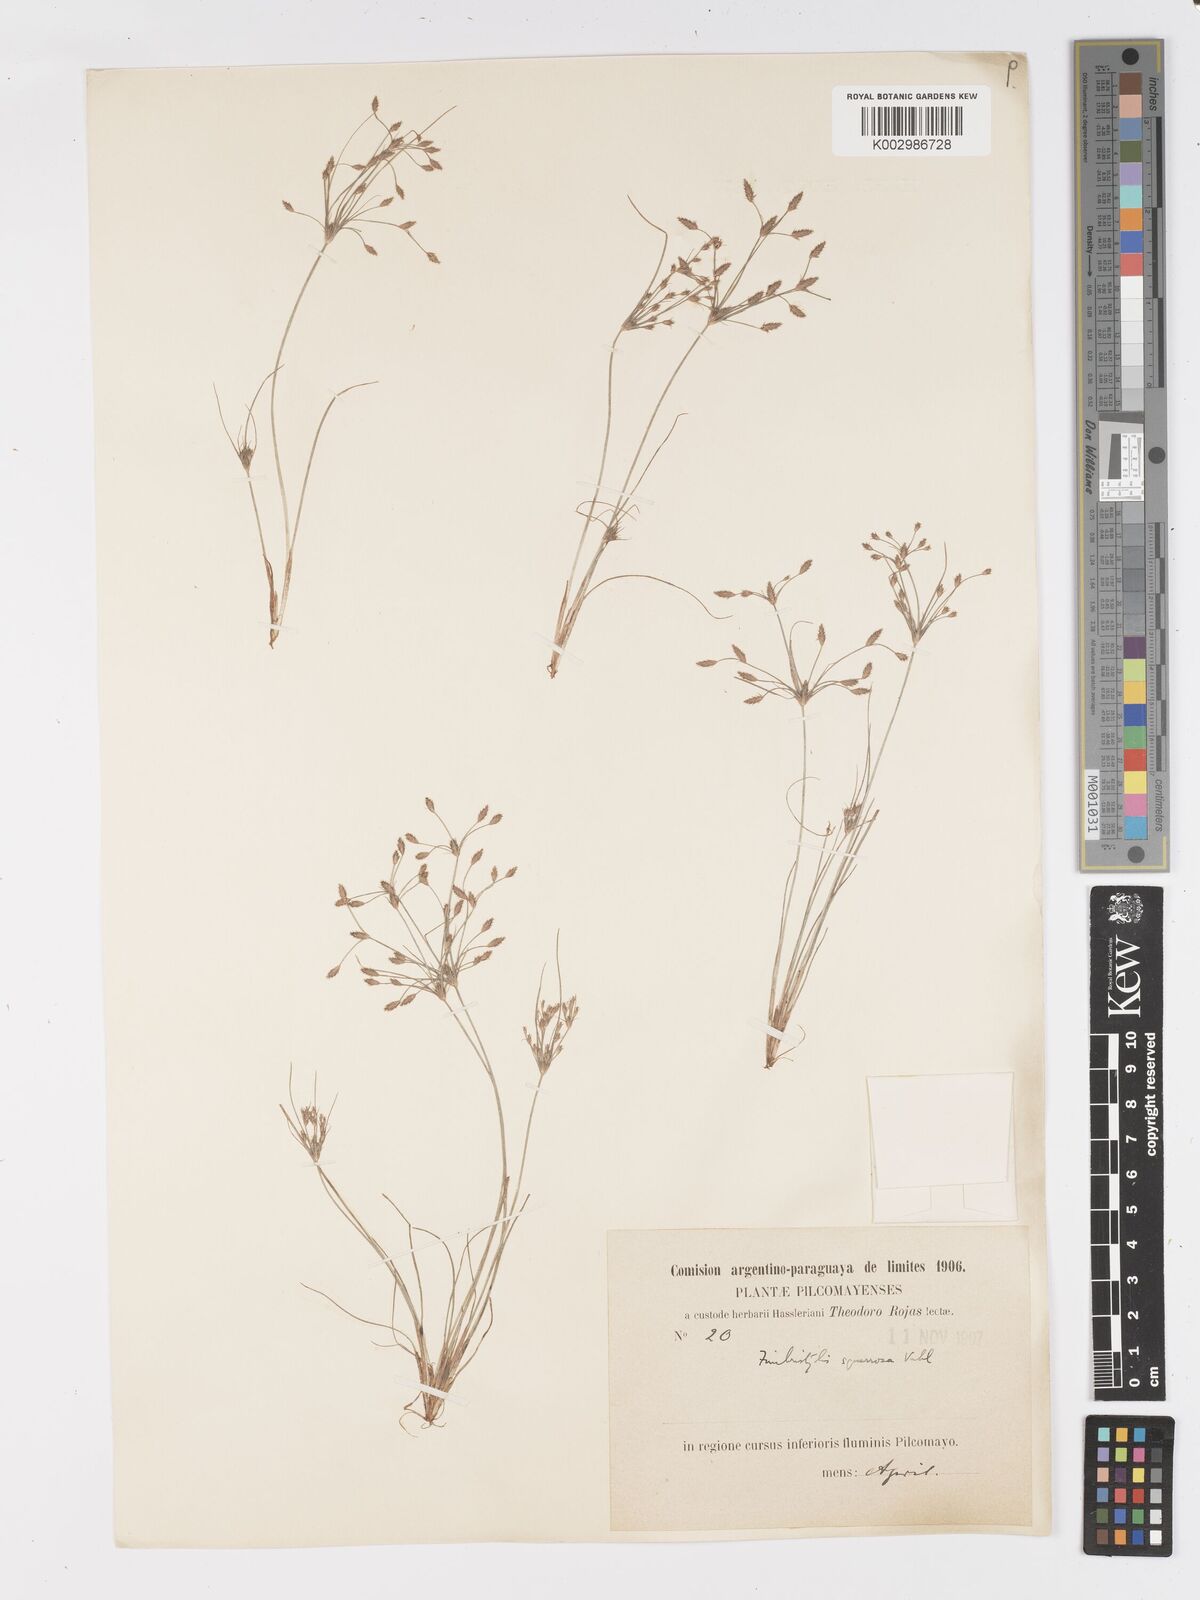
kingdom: Plantae
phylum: Tracheophyta
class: Liliopsida
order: Poales
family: Cyperaceae
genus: Fimbristylis
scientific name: Fimbristylis squarrosa
